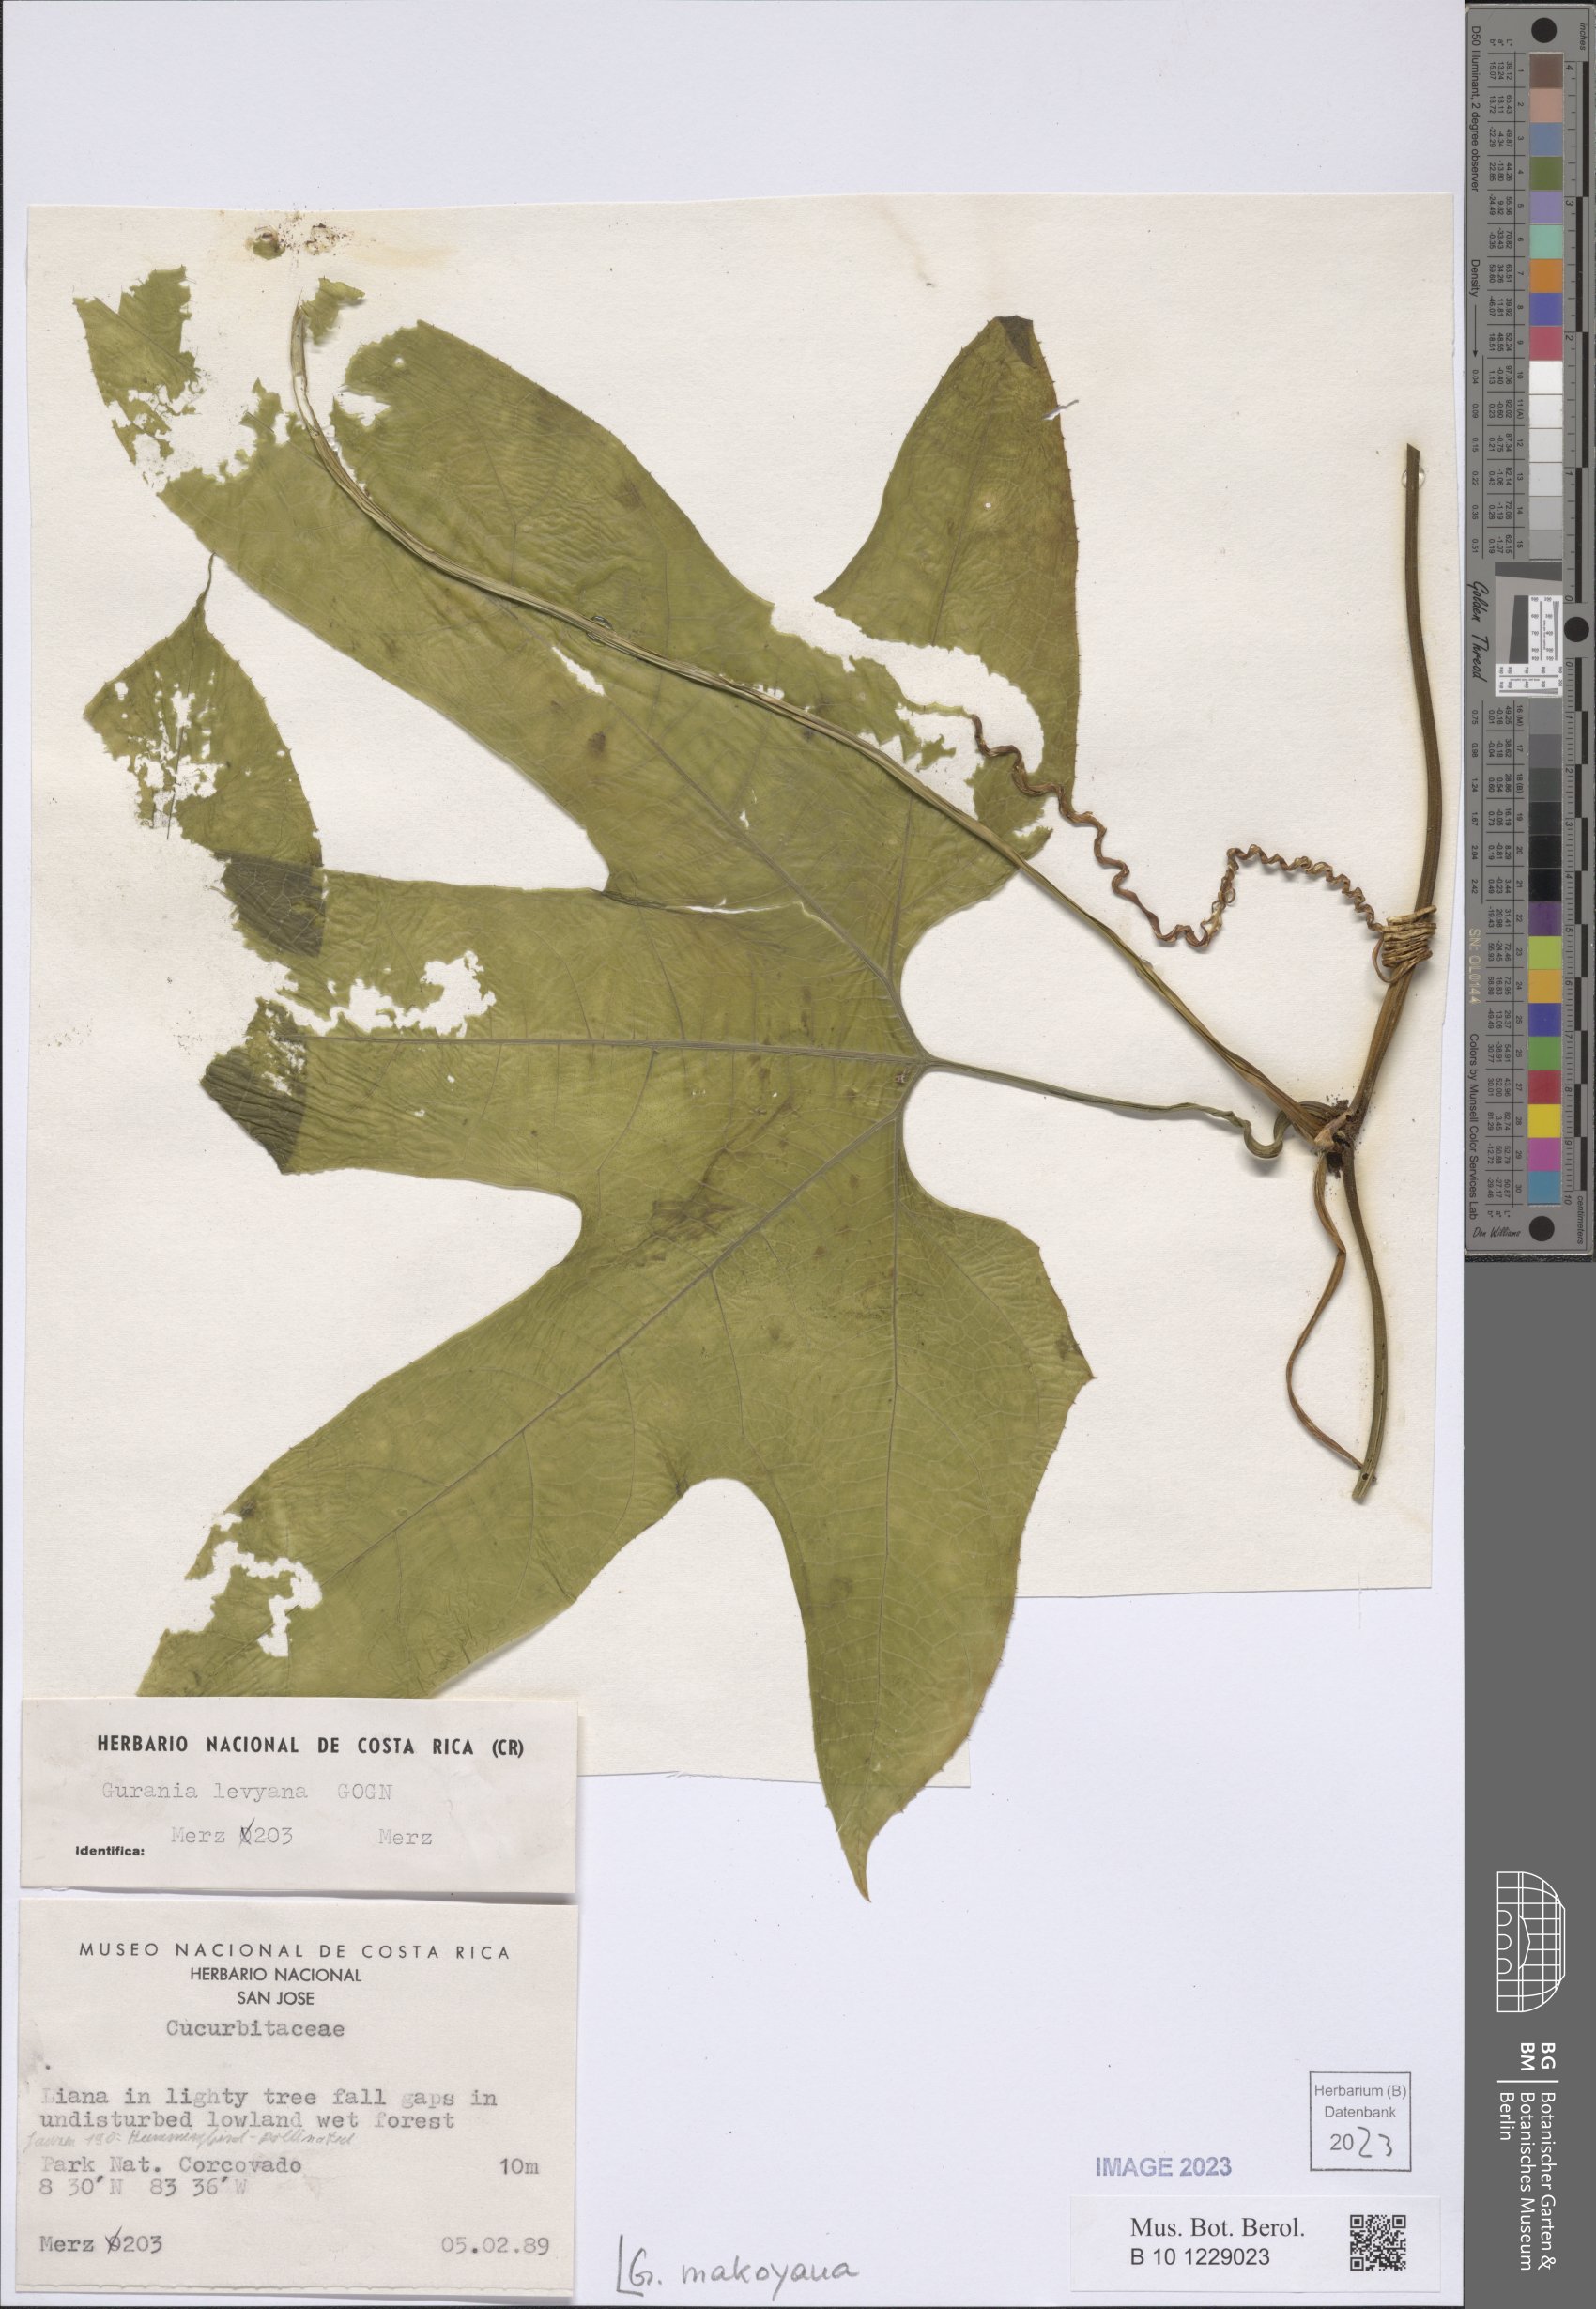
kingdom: Plantae
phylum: Tracheophyta
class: Magnoliopsida
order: Cucurbitales
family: Cucurbitaceae
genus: Gurania
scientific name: Gurania makoyana
